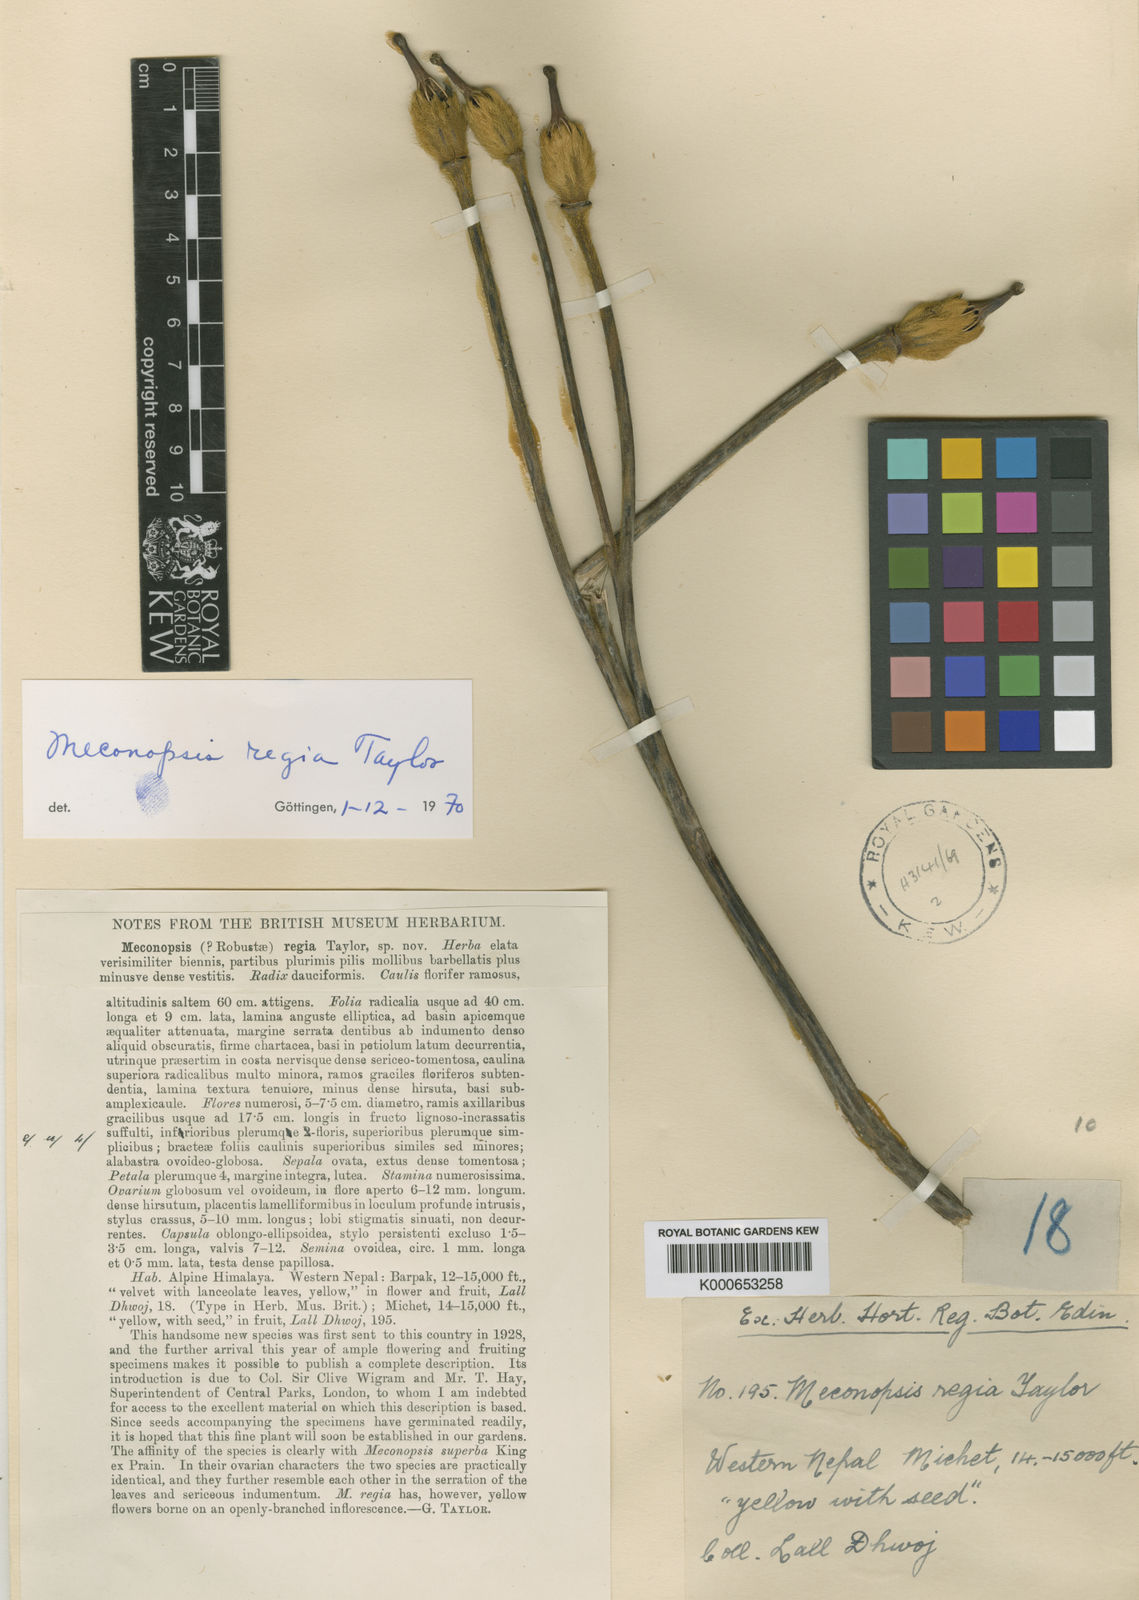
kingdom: Plantae
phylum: Tracheophyta
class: Magnoliopsida
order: Ranunculales
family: Papaveraceae
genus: Meconopsis
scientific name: Meconopsis regia
